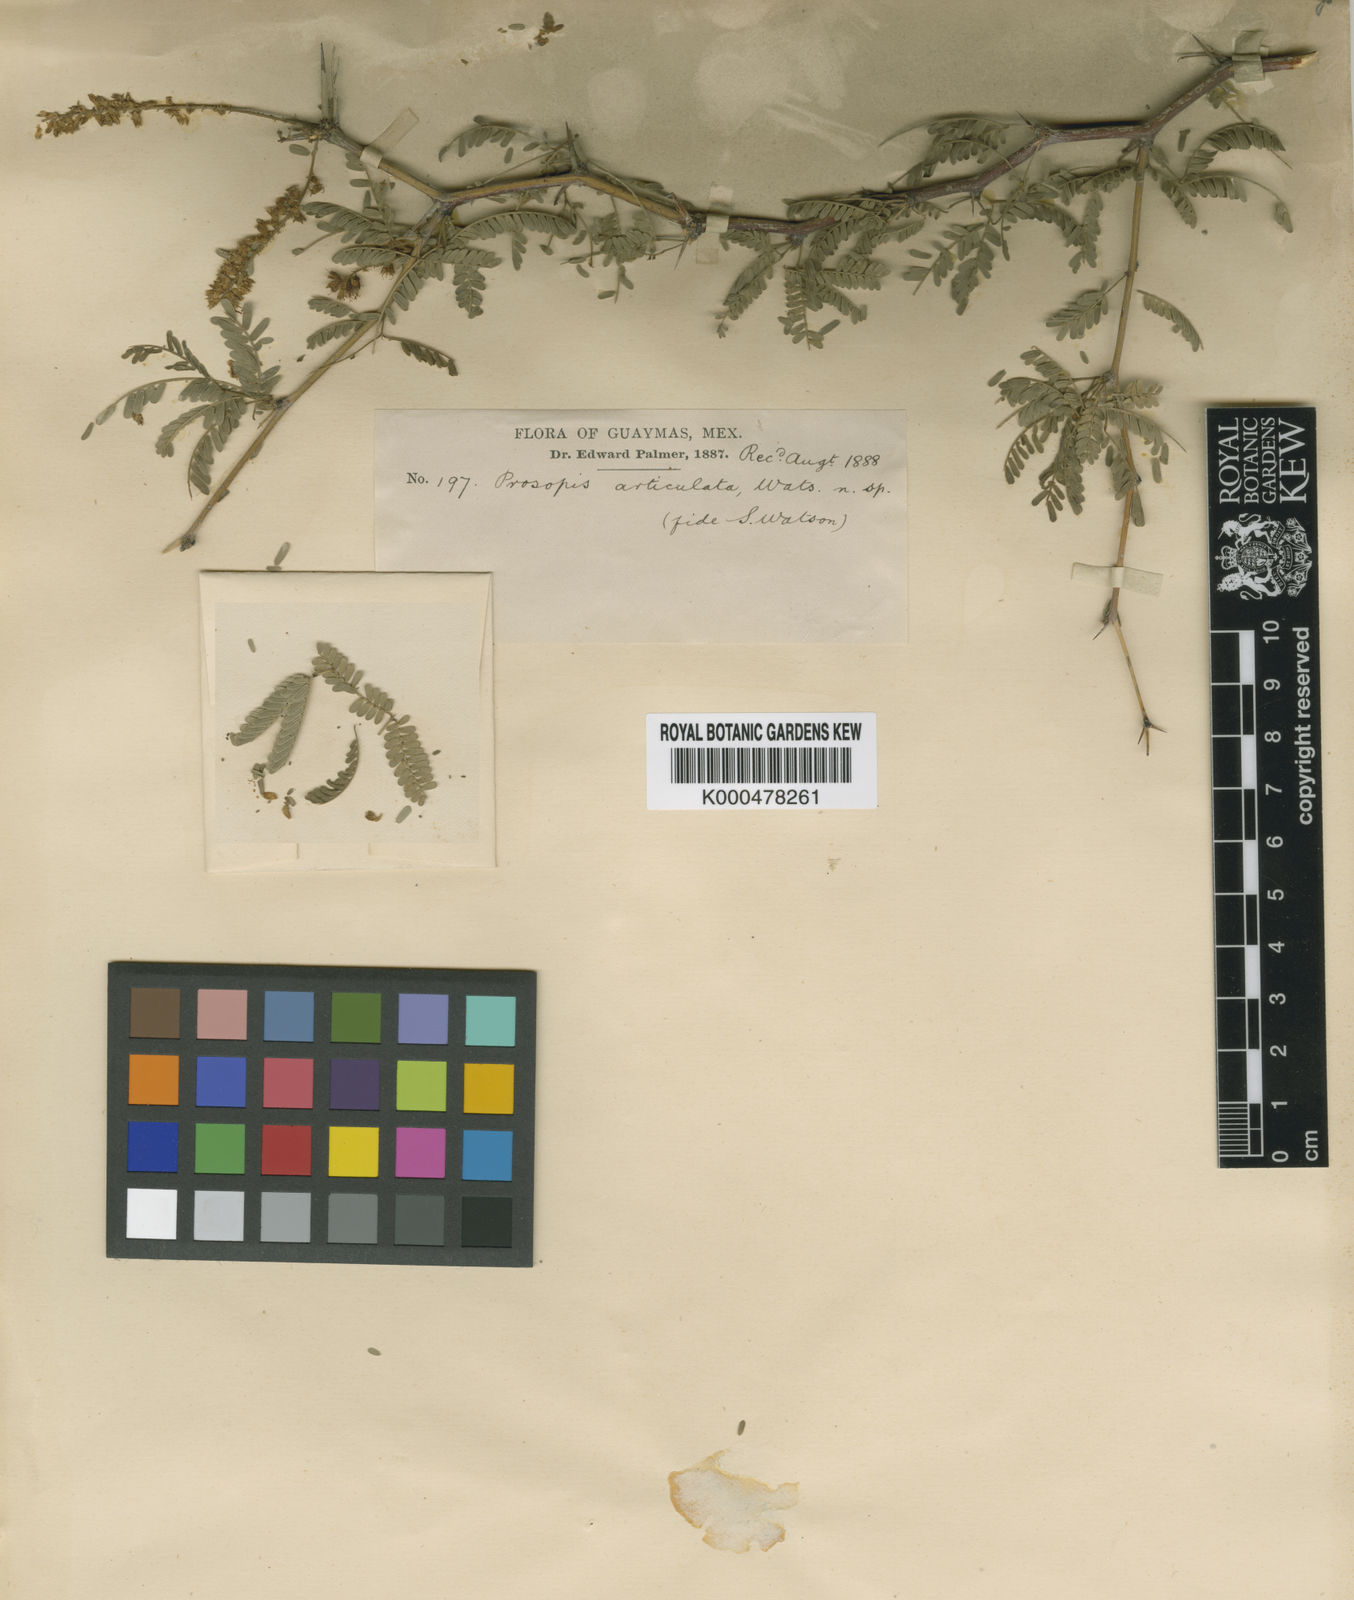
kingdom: Plantae
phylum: Tracheophyta
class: Magnoliopsida
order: Fabales
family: Fabaceae
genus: Prosopis
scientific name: Prosopis articulata
